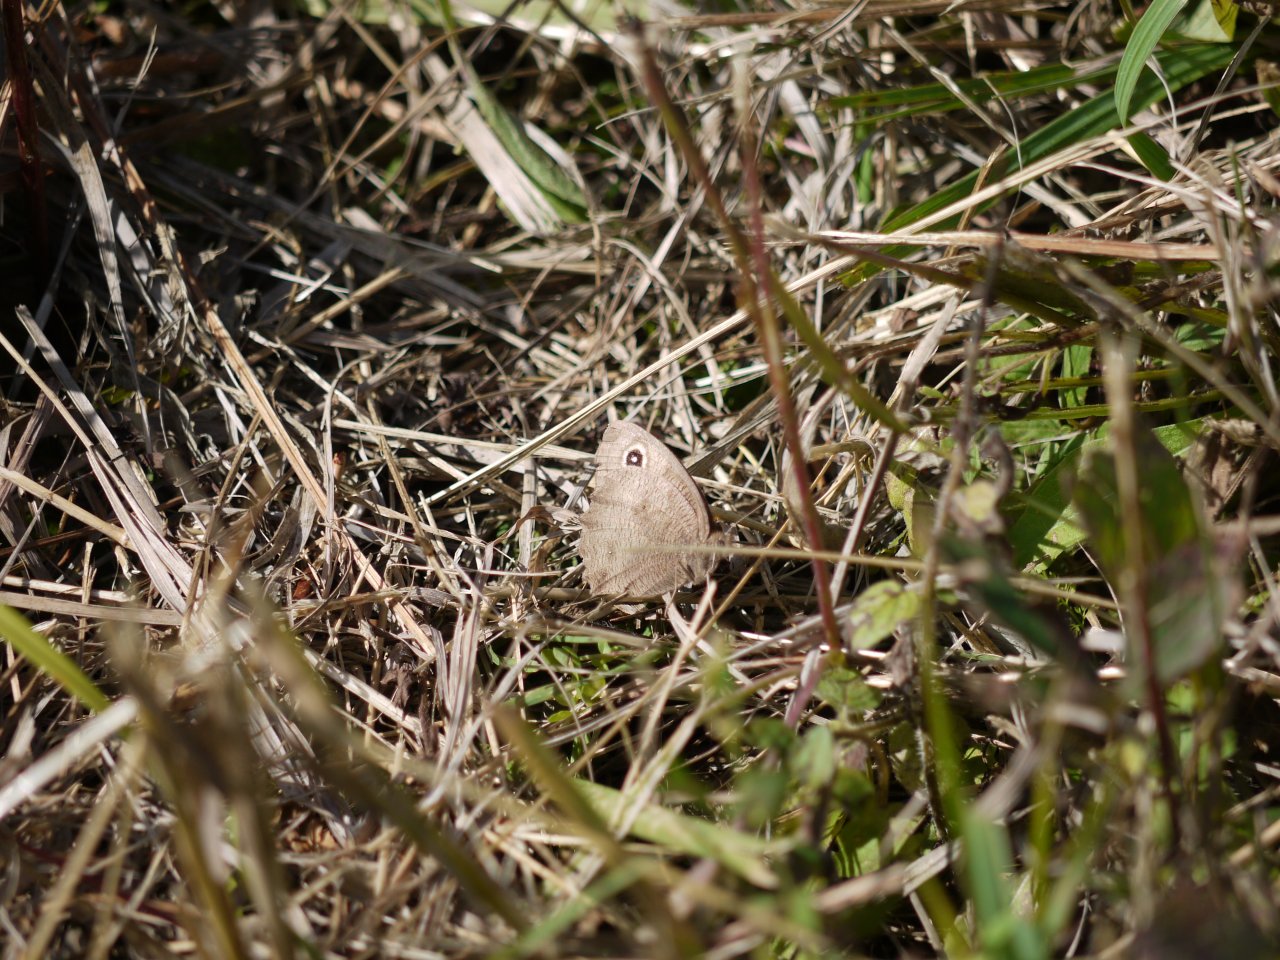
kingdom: Animalia
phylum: Arthropoda
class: Insecta
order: Lepidoptera
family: Nymphalidae
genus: Cercyonis
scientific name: Cercyonis pegala
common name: Common Wood-Nymph
